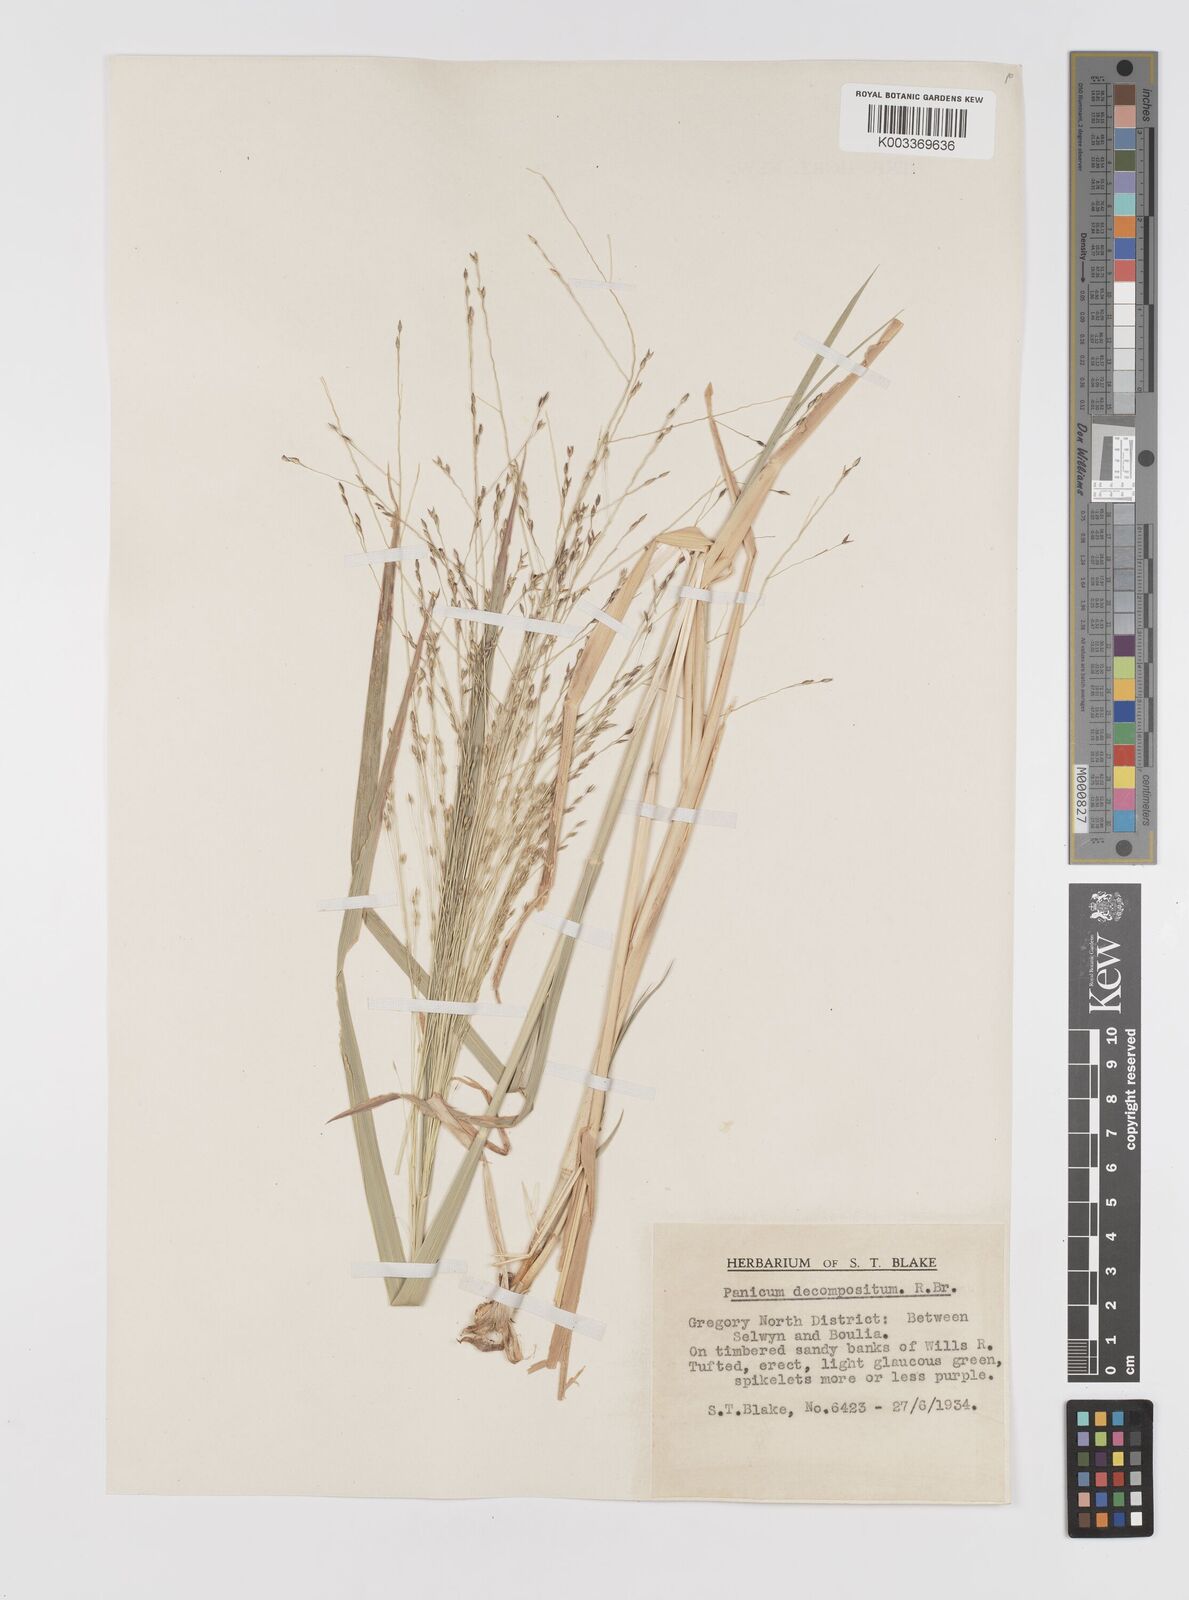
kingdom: Plantae
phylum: Tracheophyta
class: Liliopsida
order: Poales
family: Poaceae
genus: Panicum
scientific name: Panicum decompositum
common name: Australian millet
